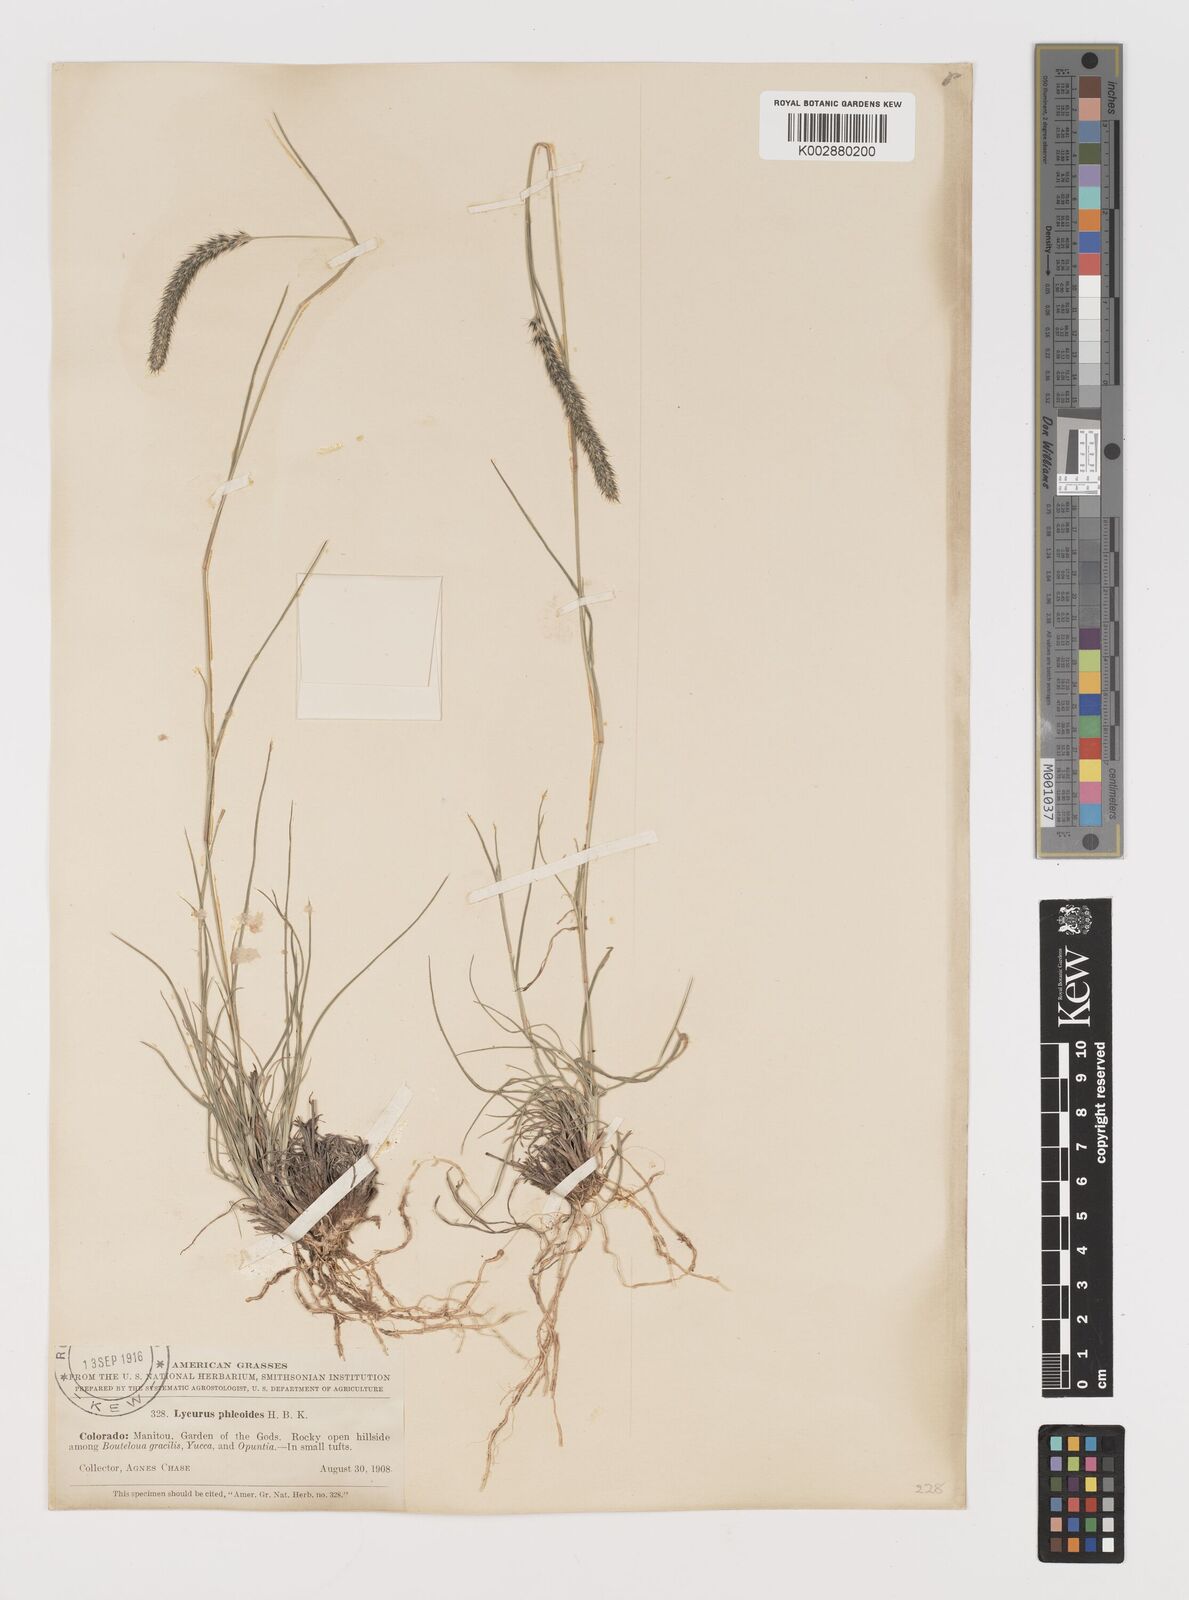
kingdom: Plantae
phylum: Tracheophyta
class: Liliopsida
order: Poales
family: Poaceae
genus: Muhlenbergia
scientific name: Muhlenbergia alopecuroides
